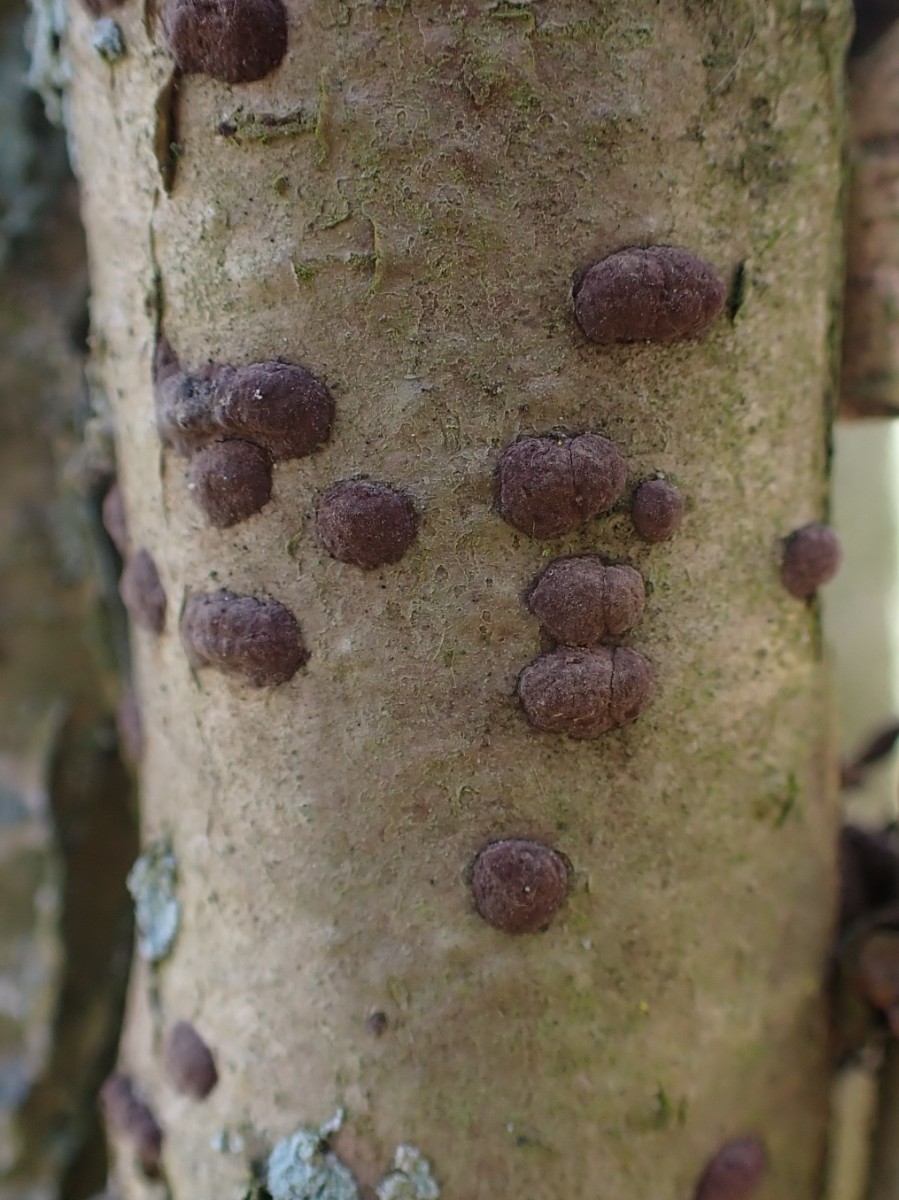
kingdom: Fungi
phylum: Ascomycota
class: Sordariomycetes
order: Xylariales
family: Hypoxylaceae
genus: Hypoxylon
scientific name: Hypoxylon fuscum
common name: kegleformet kulbær
